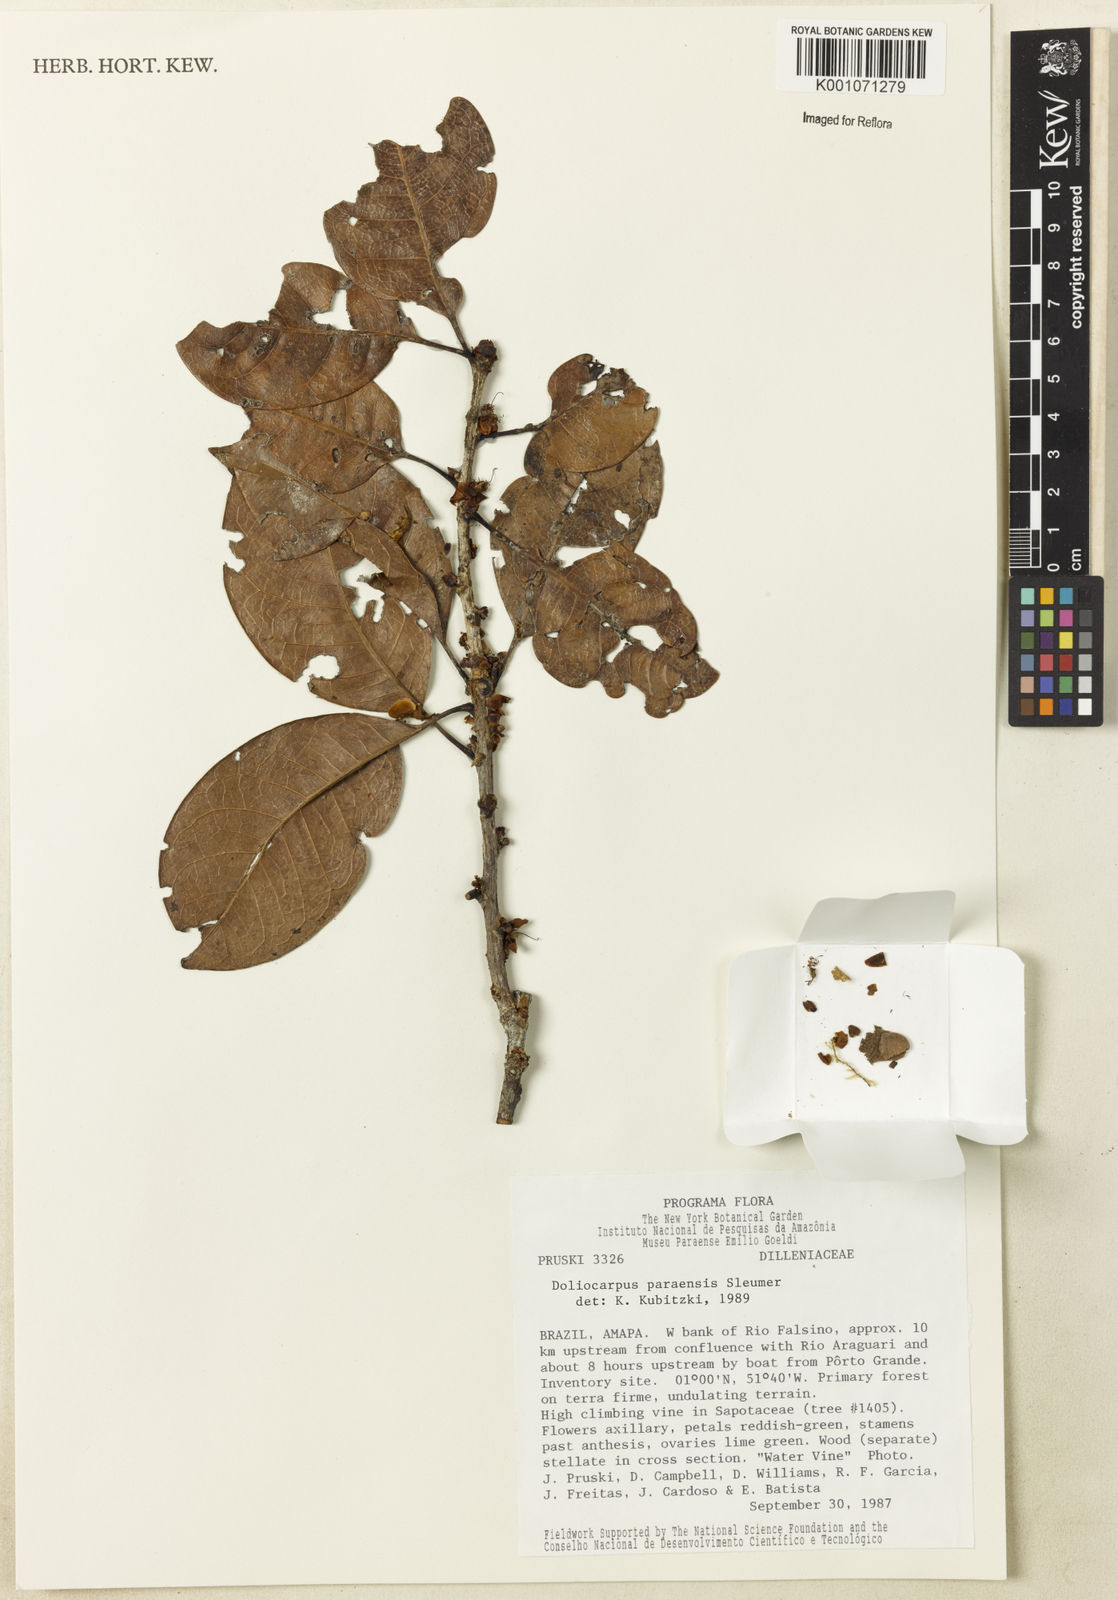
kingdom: Plantae
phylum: Tracheophyta
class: Magnoliopsida
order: Dilleniales
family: Dilleniaceae
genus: Doliocarpus
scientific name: Doliocarpus paraensis
